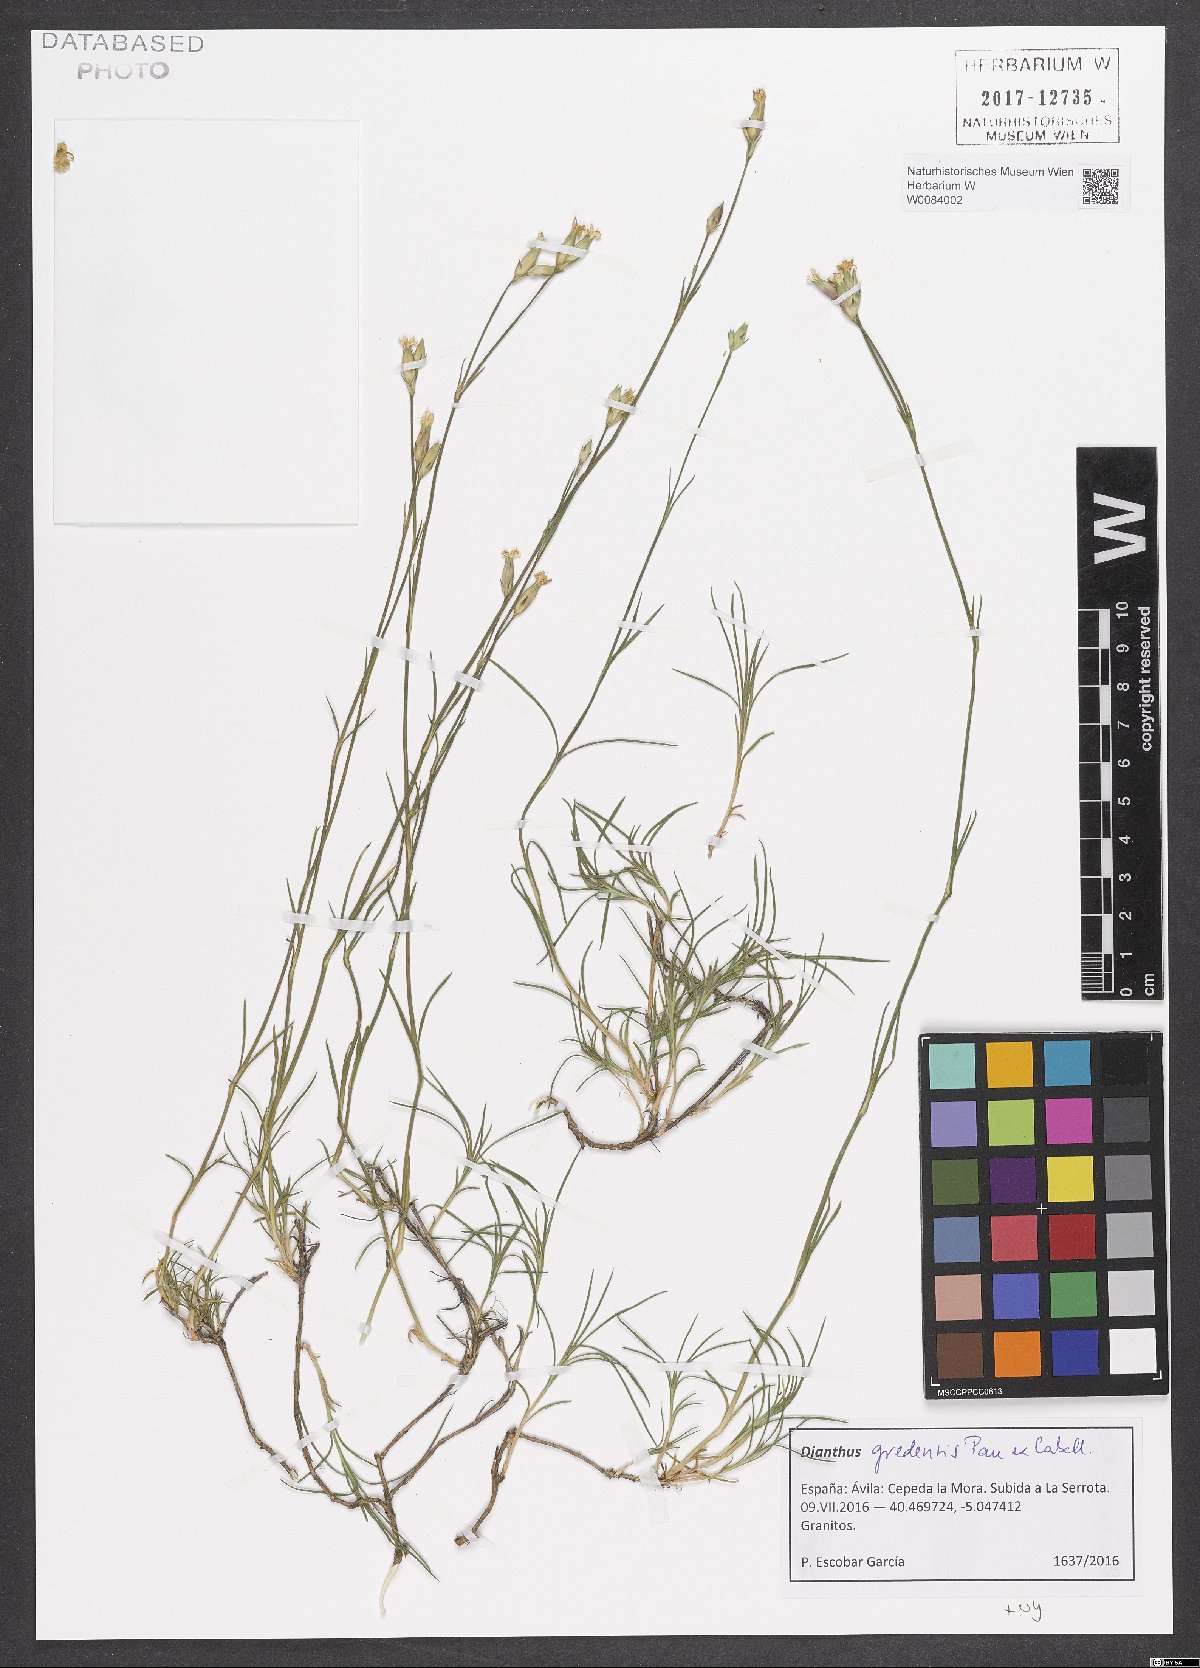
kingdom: Plantae
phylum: Tracheophyta
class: Magnoliopsida
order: Caryophyllales
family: Caryophyllaceae
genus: Dianthus
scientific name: Dianthus pungens
